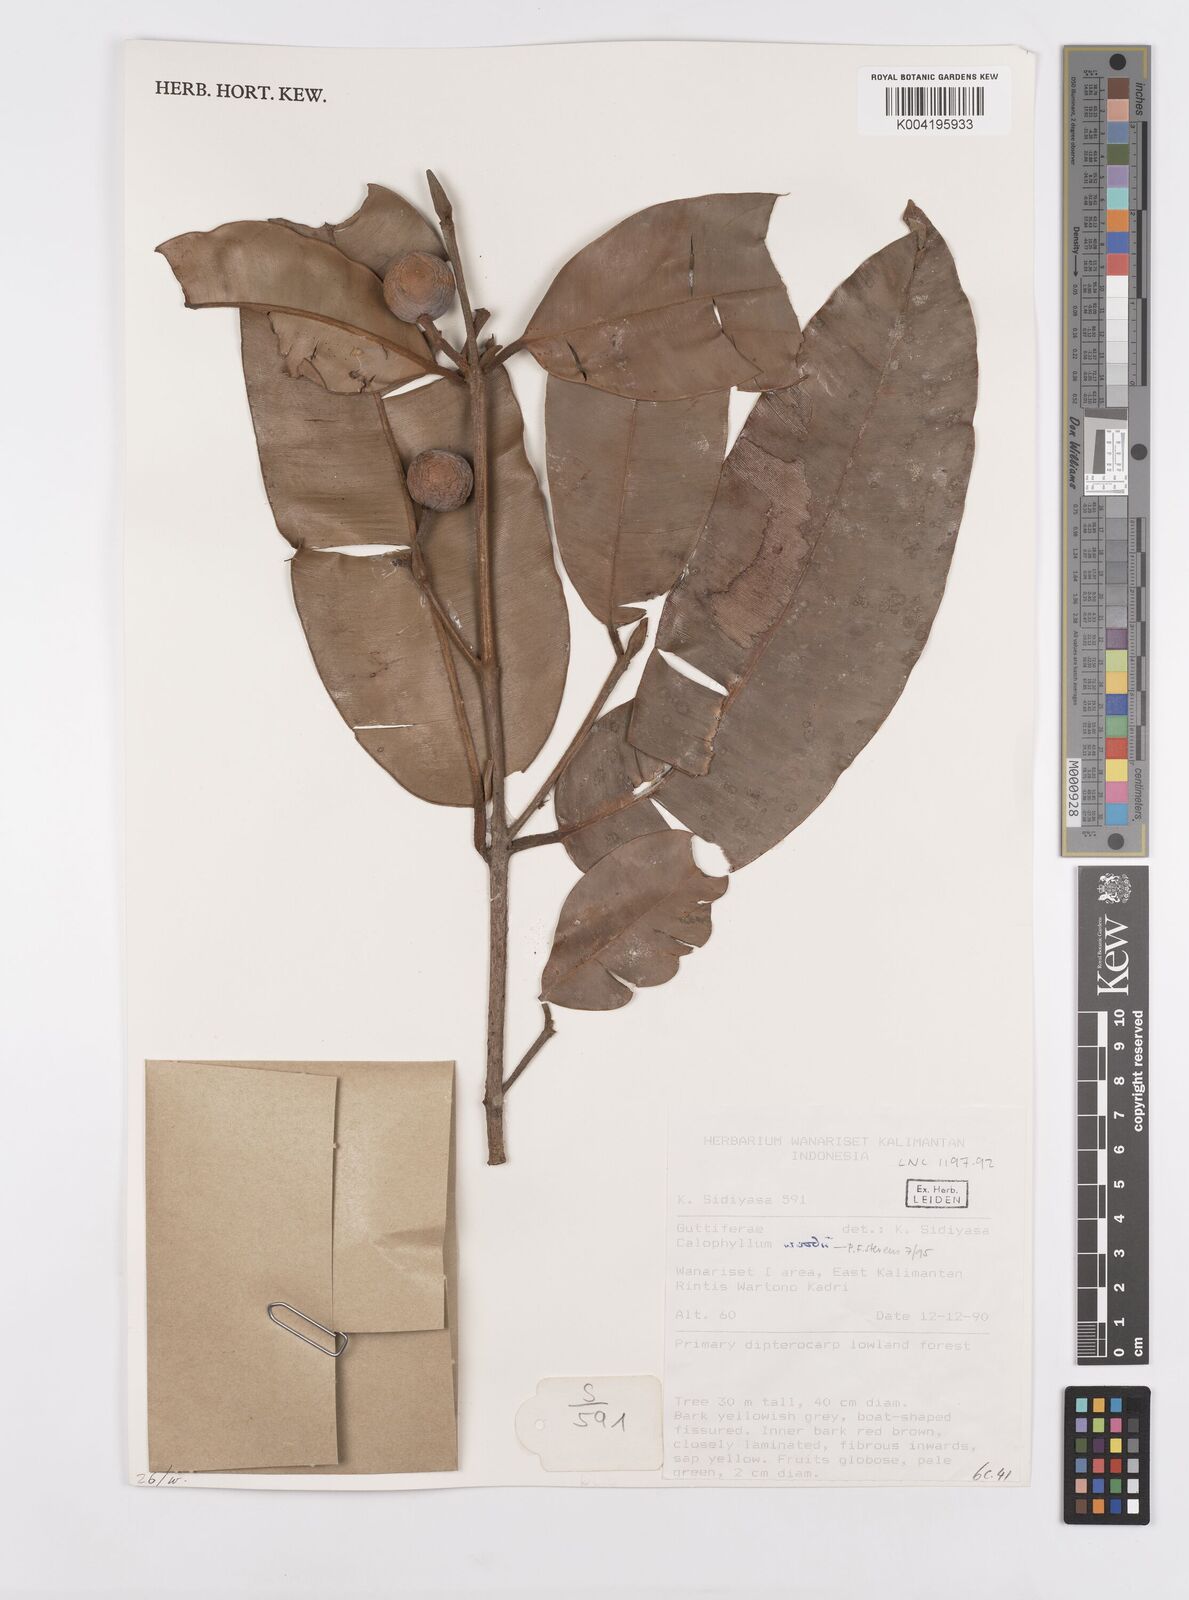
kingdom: Plantae
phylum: Tracheophyta
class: Magnoliopsida
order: Malpighiales
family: Calophyllaceae
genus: Calophyllum
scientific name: Calophyllum woodii
